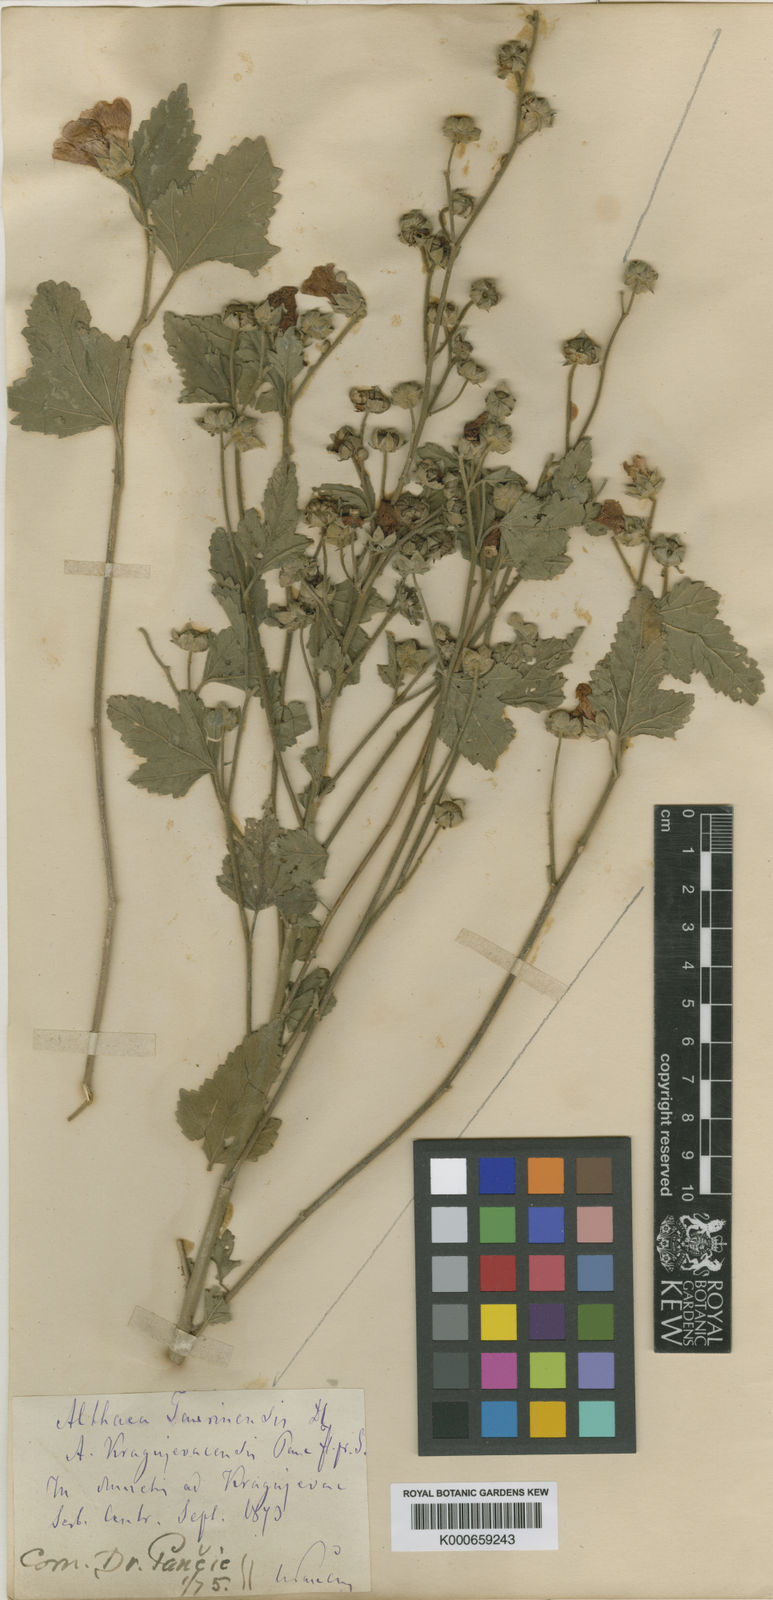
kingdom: Plantae
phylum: Tracheophyta
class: Magnoliopsida
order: Malvales
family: Malvaceae
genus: Althaea
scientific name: Althaea taurinensis
